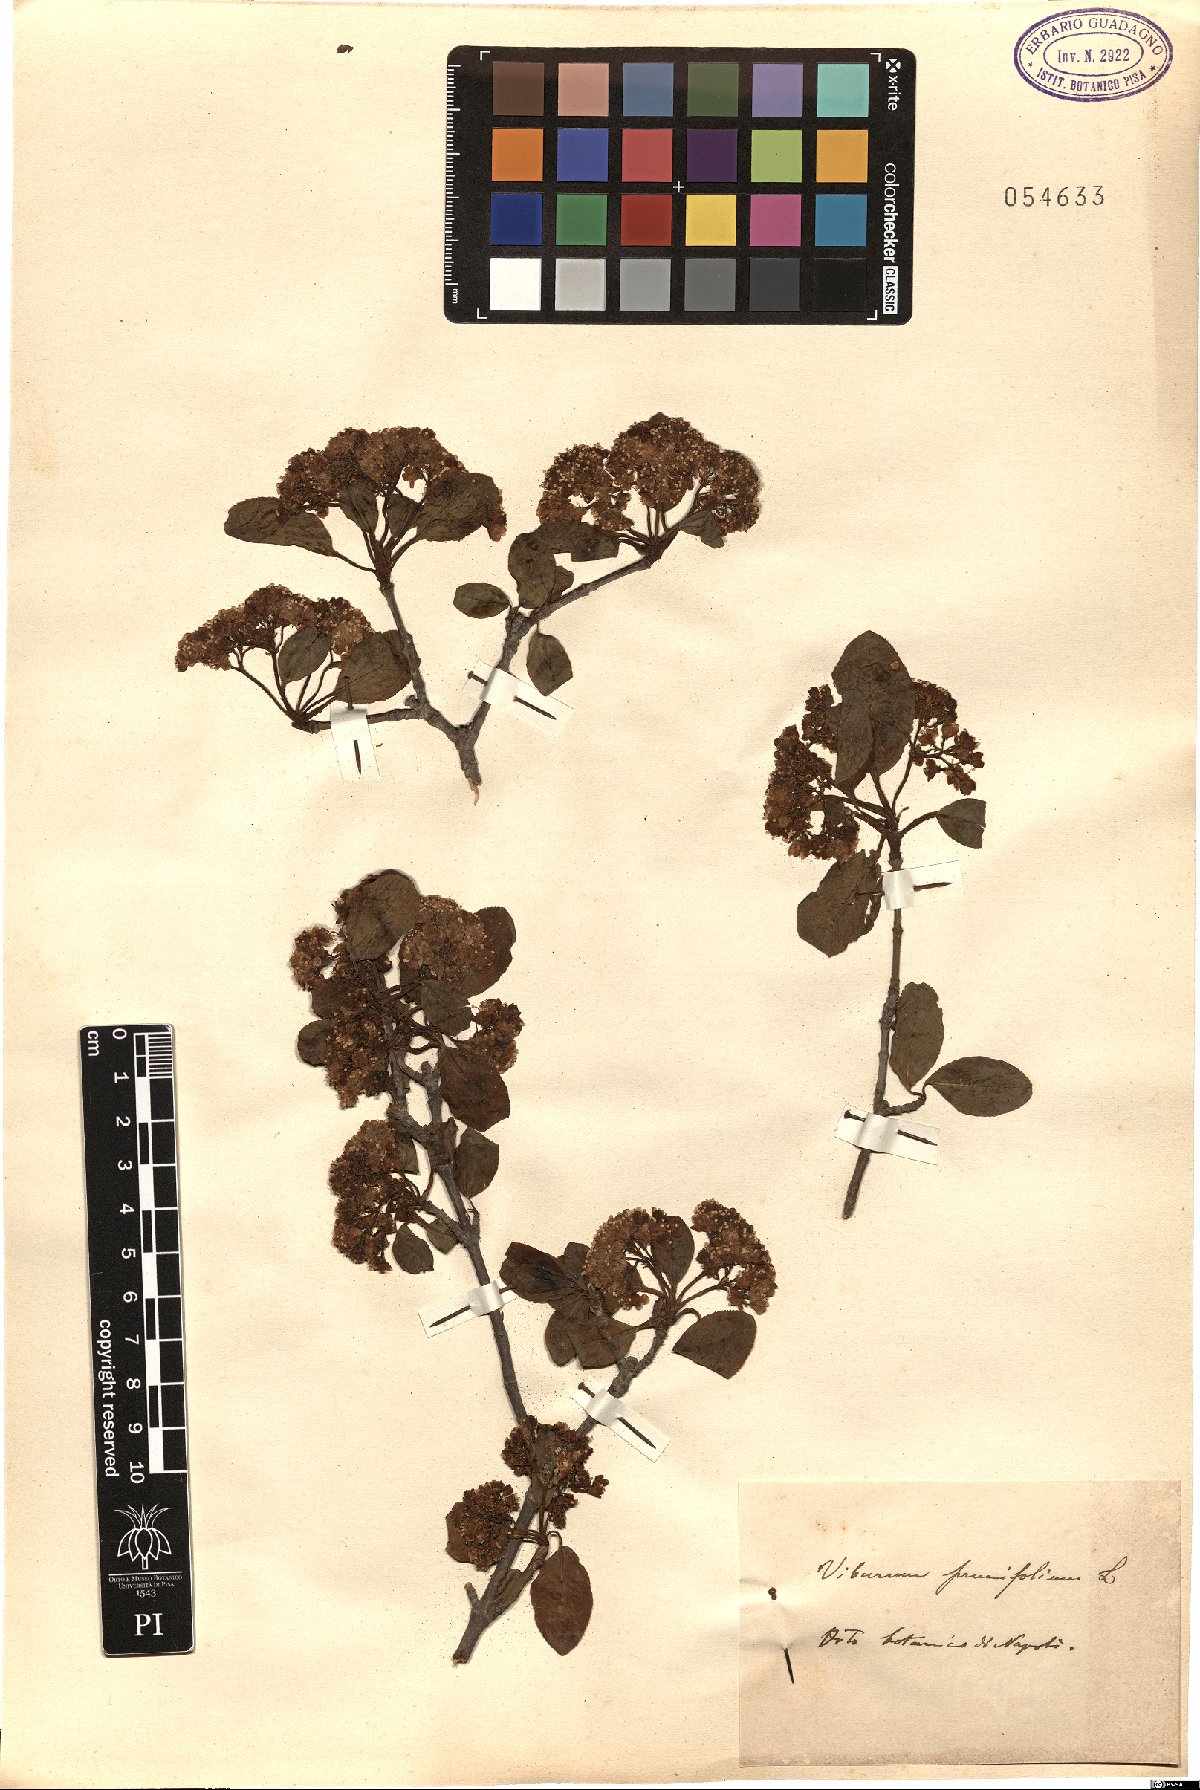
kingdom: Plantae
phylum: Tracheophyta
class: Magnoliopsida
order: Dipsacales
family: Viburnaceae
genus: Viburnum
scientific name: Viburnum prunifolium
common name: Black haw
